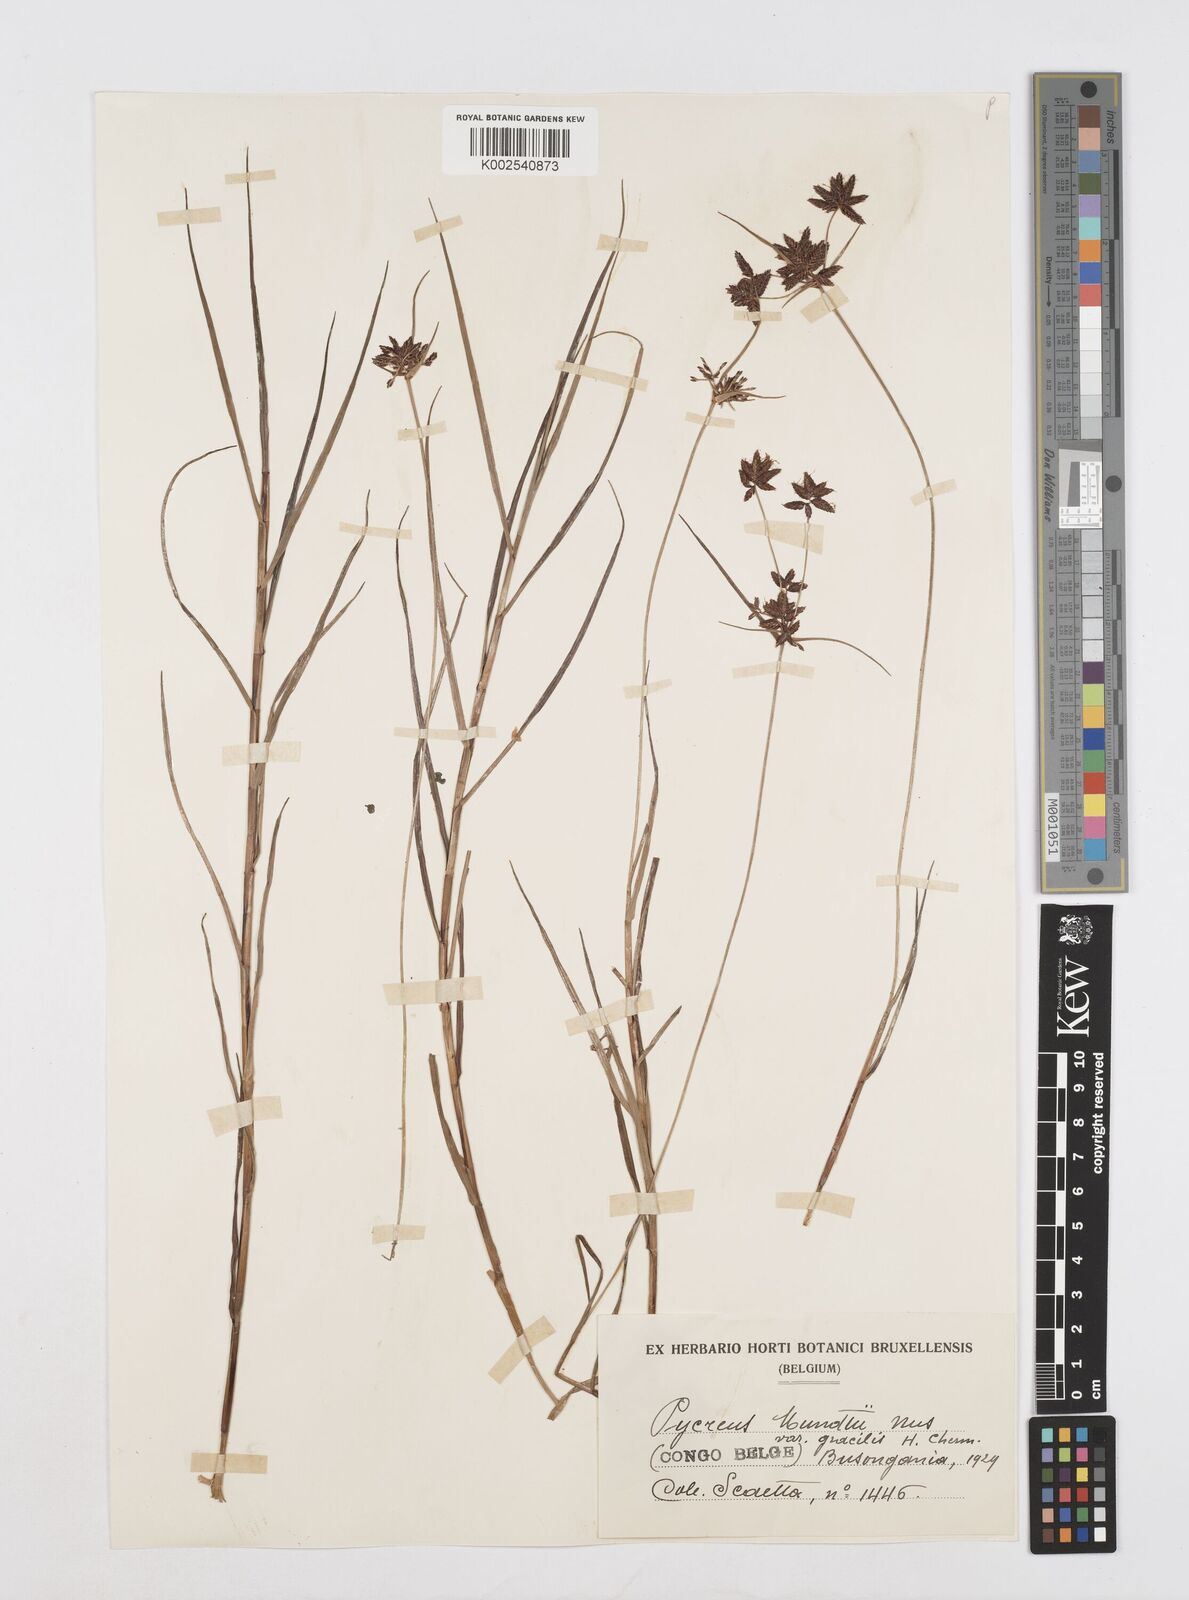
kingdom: Plantae
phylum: Tracheophyta
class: Liliopsida
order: Poales
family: Cyperaceae
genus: Cyperus
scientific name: Cyperus mundii
